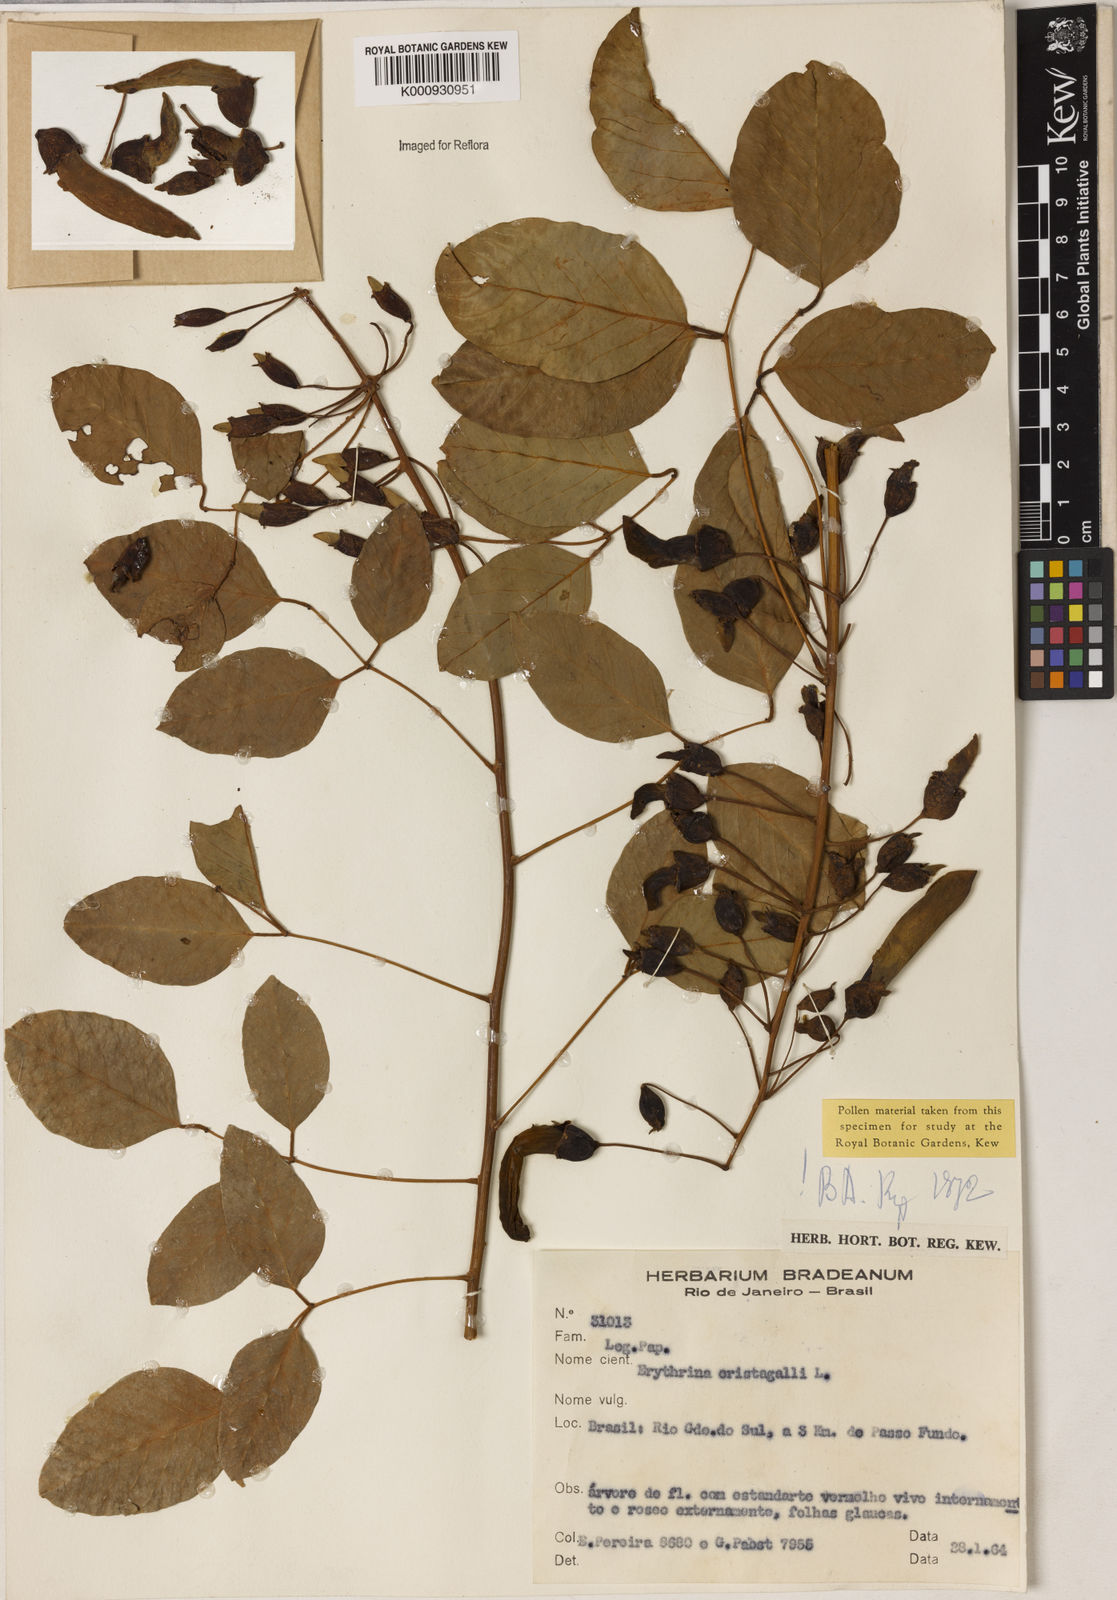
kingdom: Plantae
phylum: Tracheophyta
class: Magnoliopsida
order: Fabales
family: Fabaceae
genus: Erythrina
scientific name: Erythrina crista-galli
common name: Cockspur coral tree
